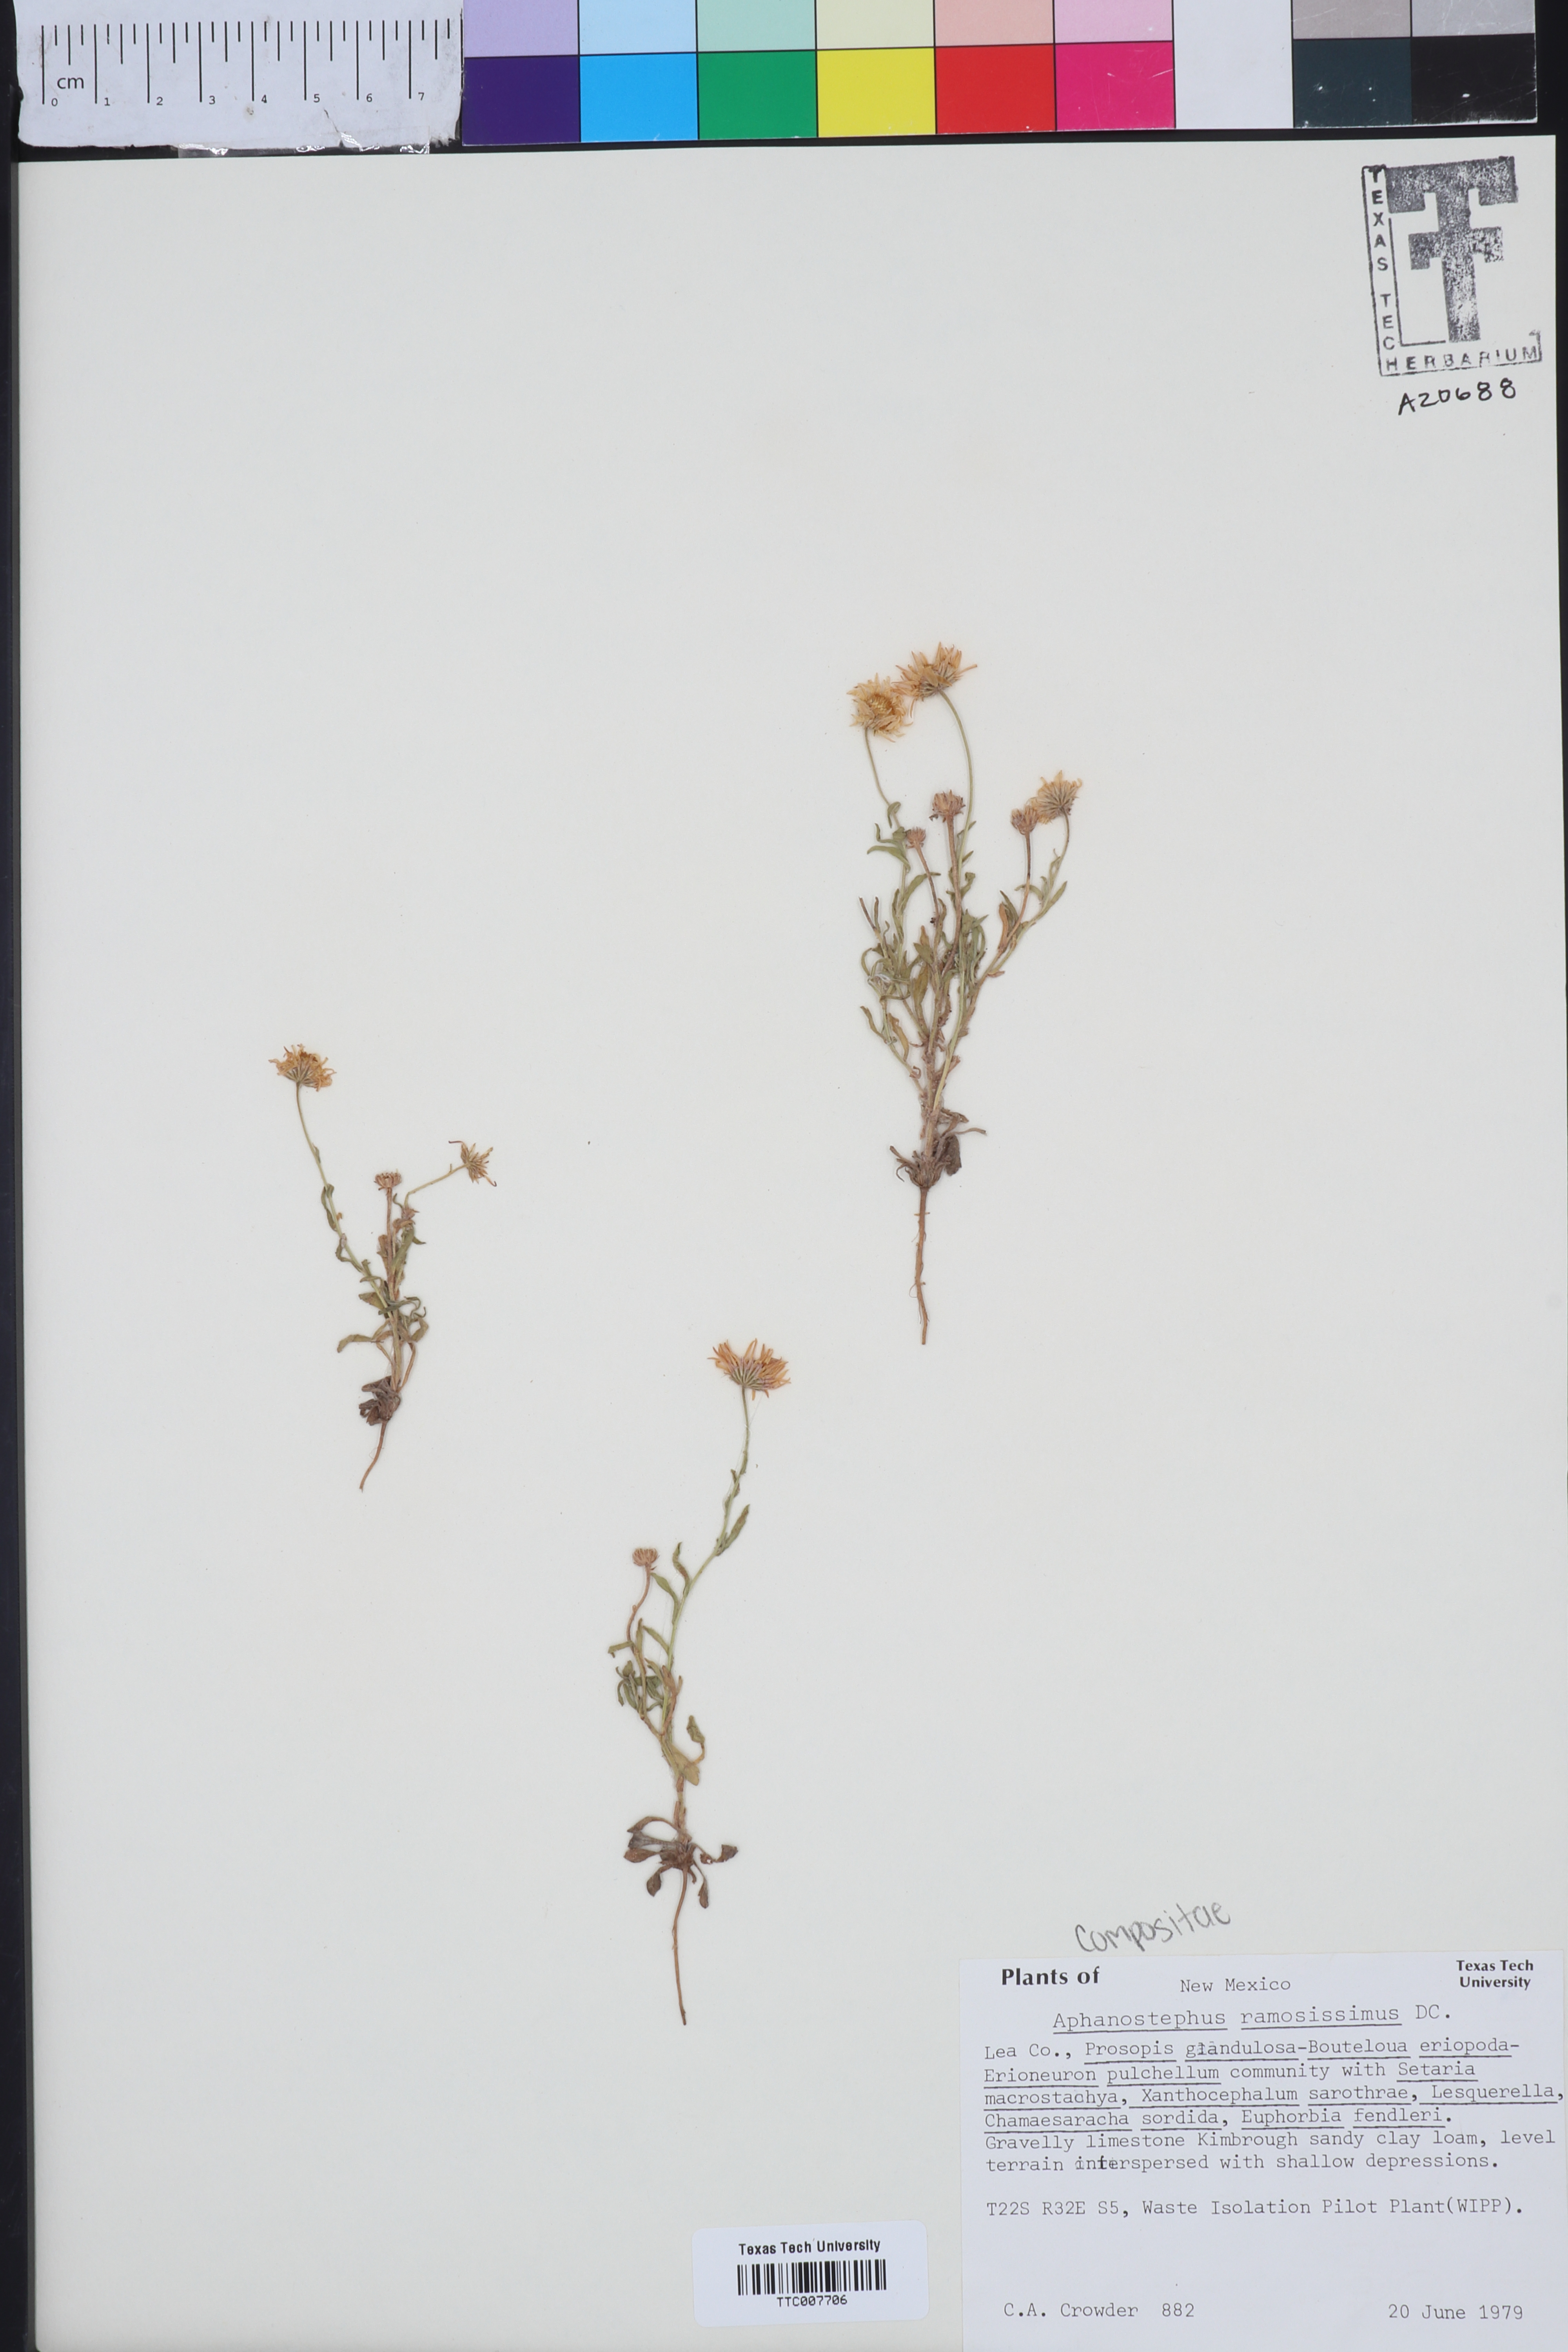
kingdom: Plantae
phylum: Tracheophyta
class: Magnoliopsida
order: Asterales
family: Asteraceae
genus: Aphanostephus
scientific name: Aphanostephus ramosissimus
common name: Plains lazy daisy
